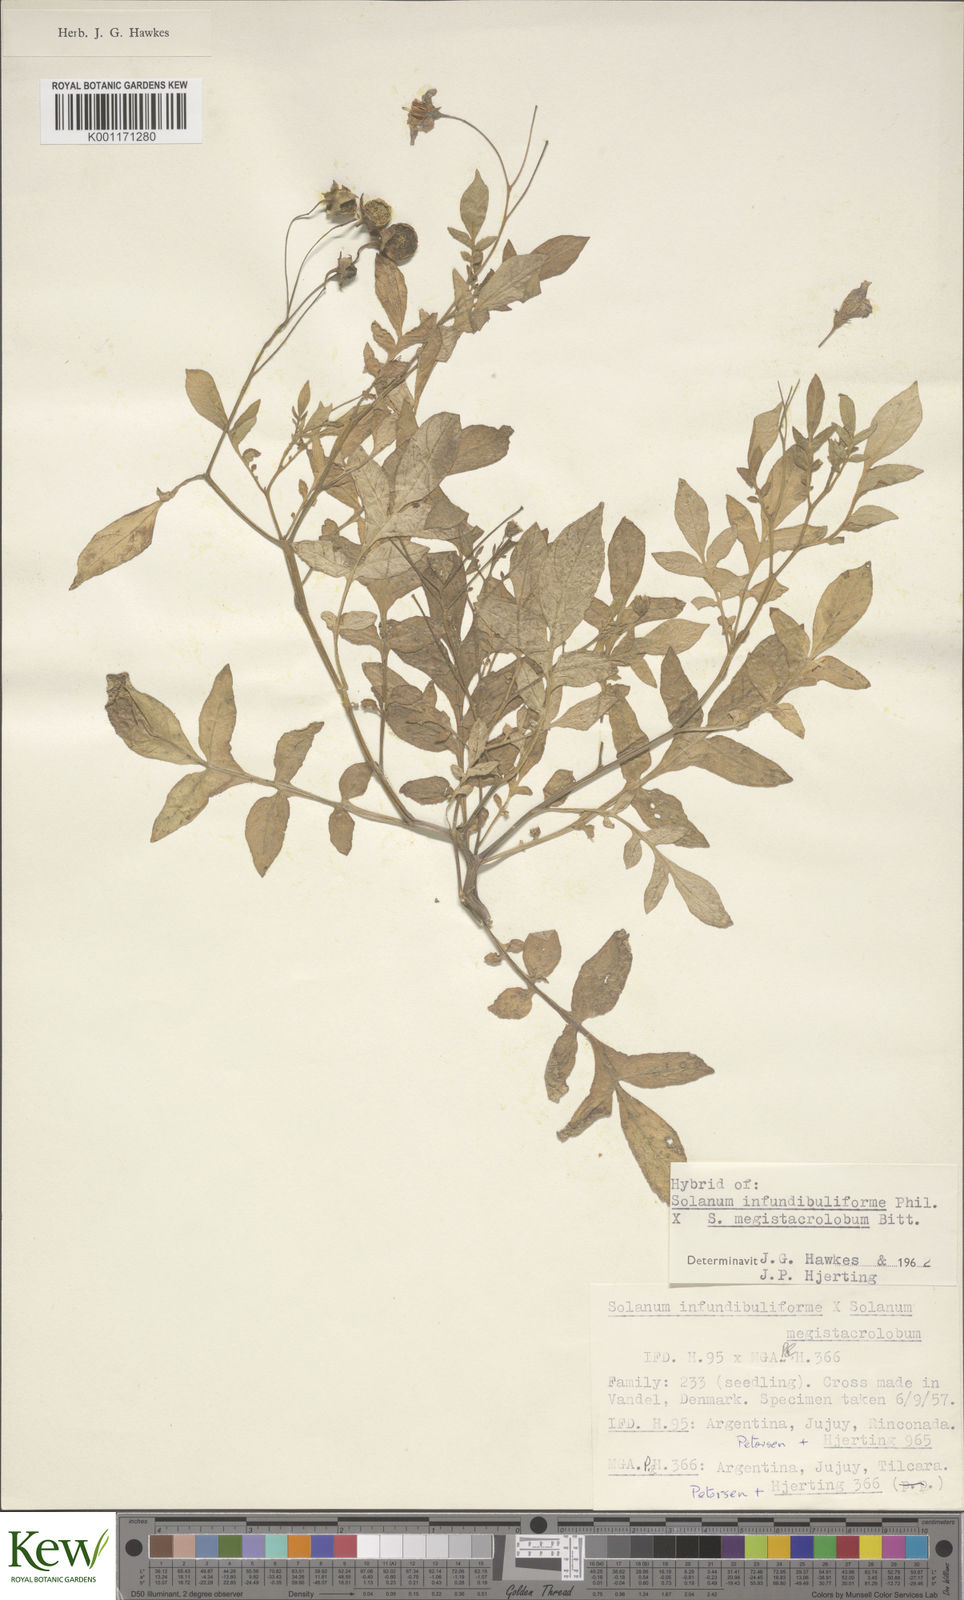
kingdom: Plantae
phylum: Tracheophyta
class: Magnoliopsida
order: Solanales
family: Solanaceae
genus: Solanum
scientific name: Solanum infundibuliforme
